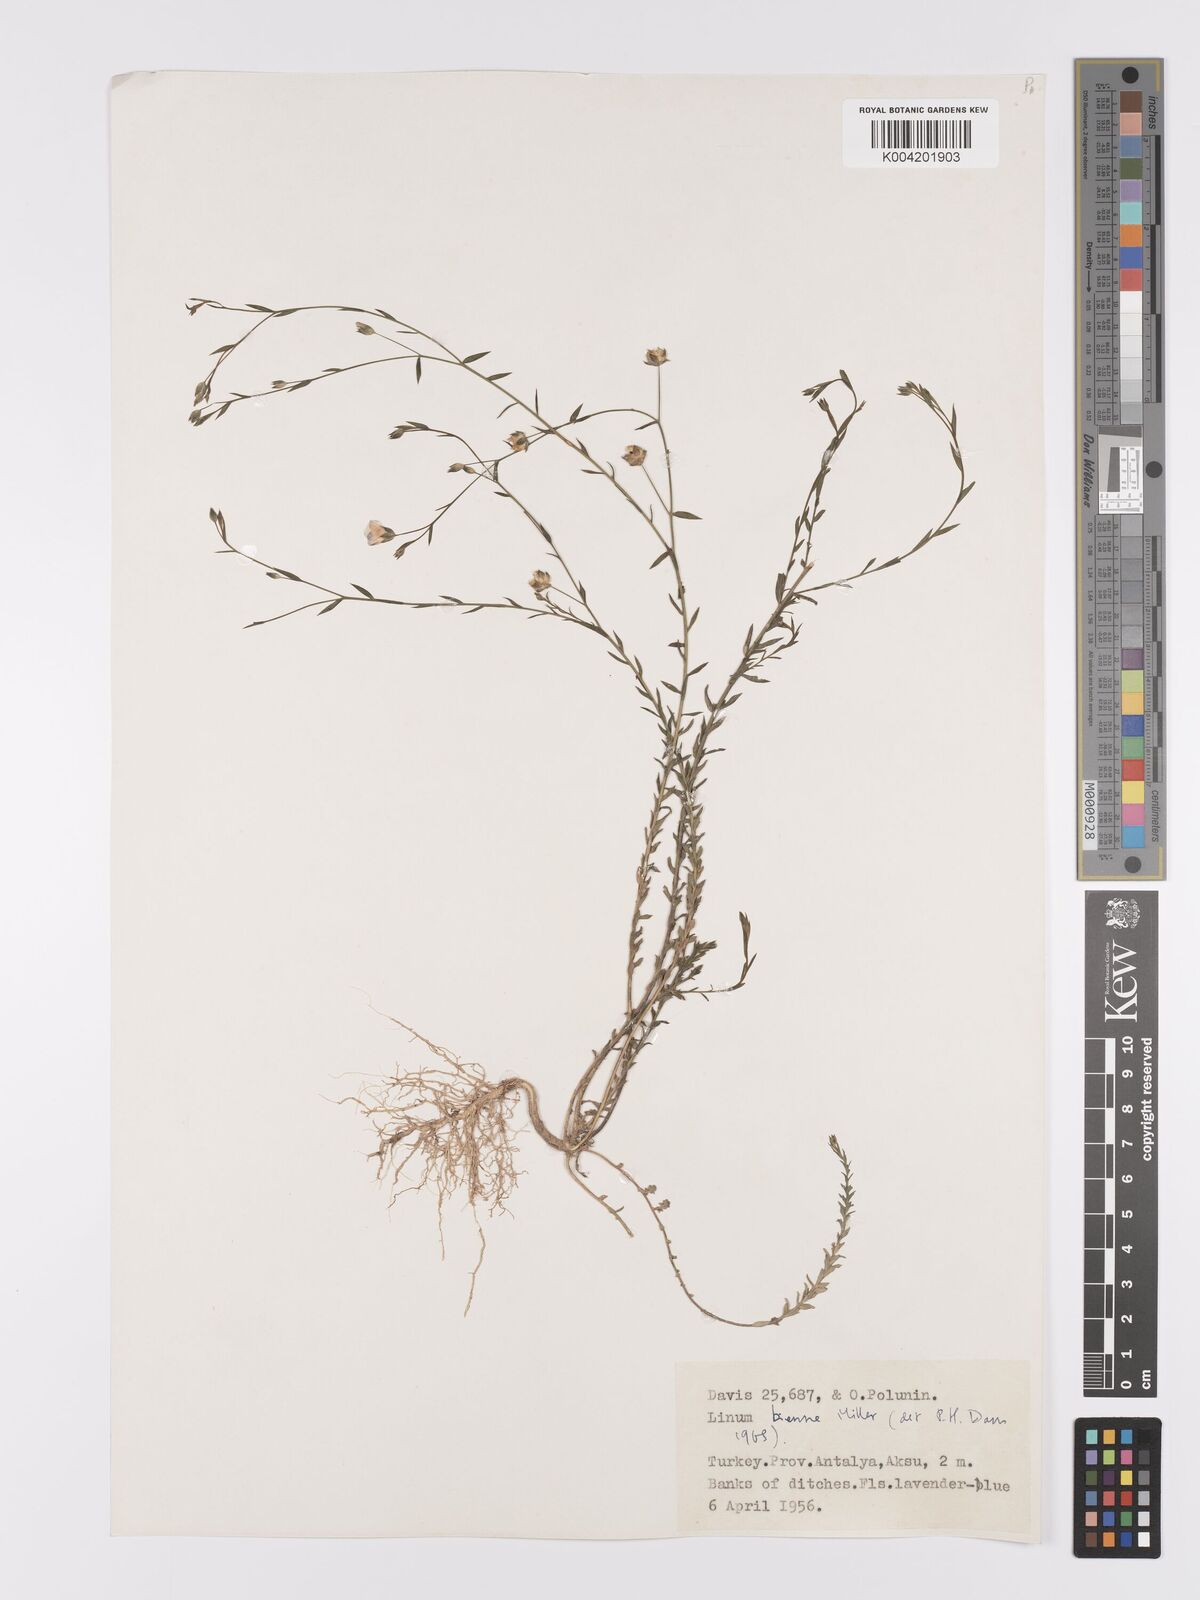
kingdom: Plantae
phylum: Tracheophyta
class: Magnoliopsida
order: Malpighiales
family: Linaceae
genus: Linum
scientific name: Linum
